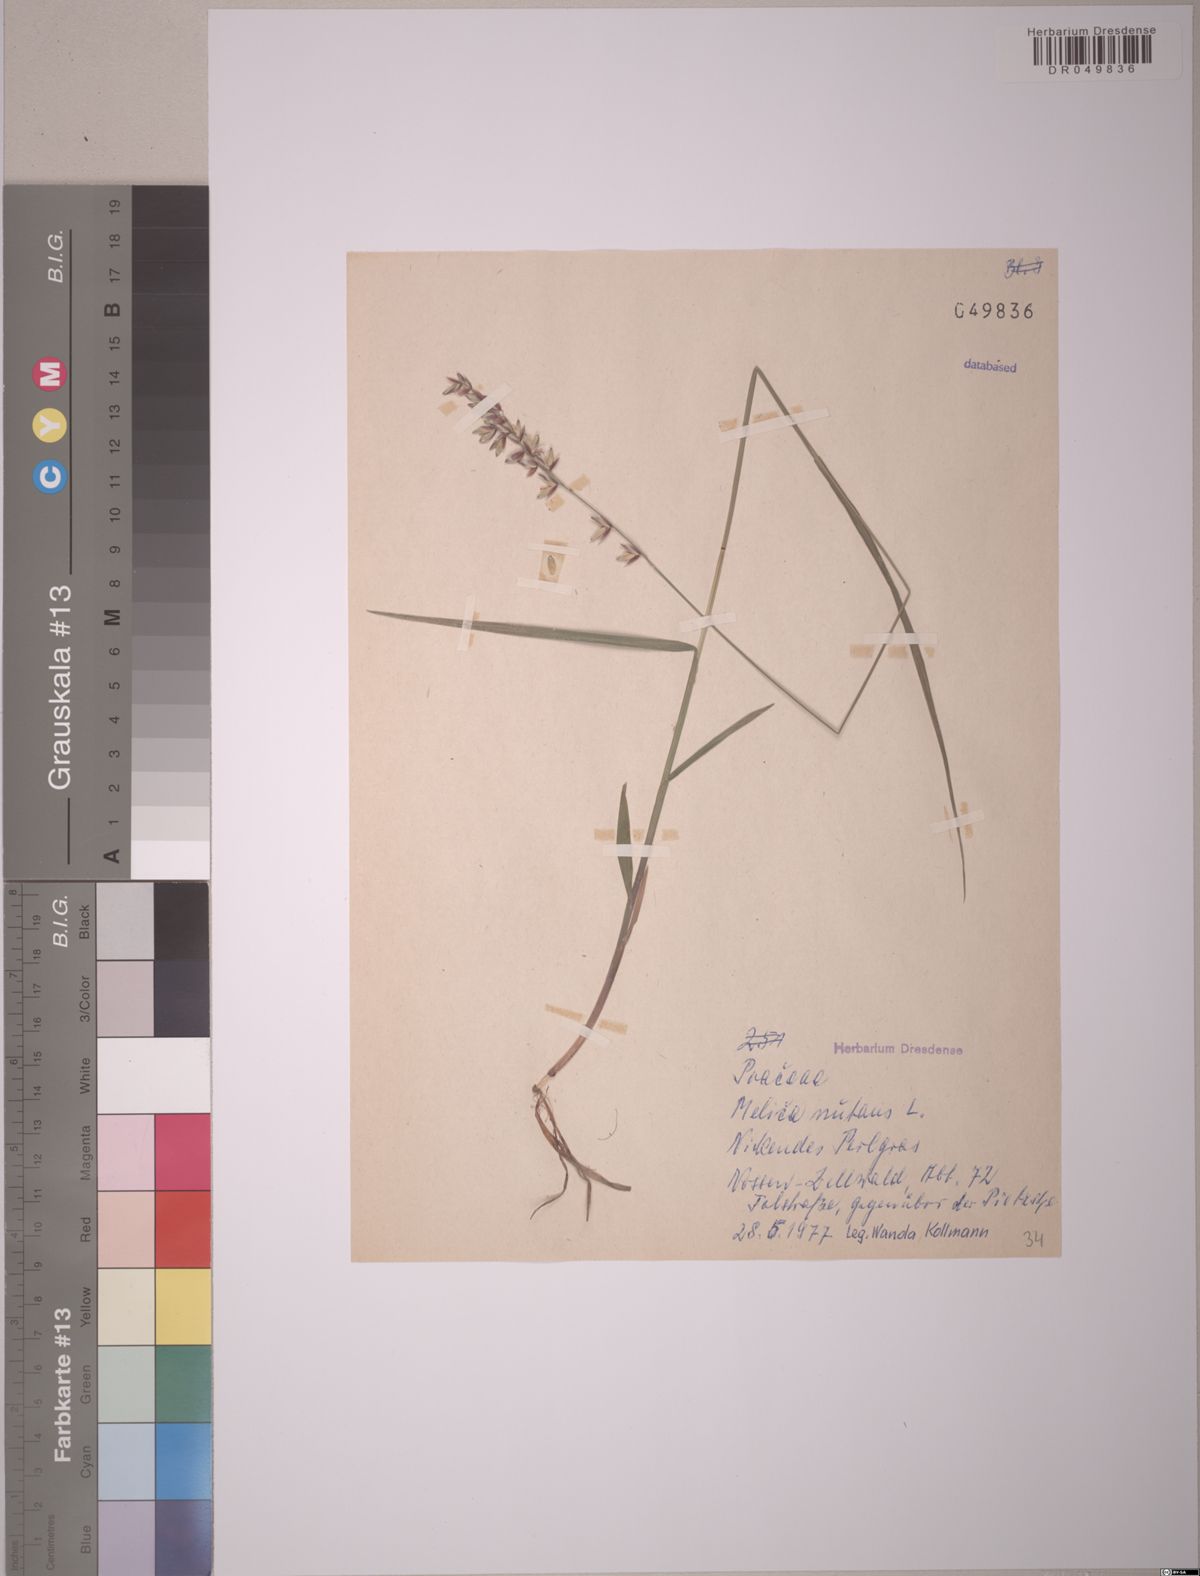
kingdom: Plantae
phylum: Tracheophyta
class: Liliopsida
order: Poales
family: Poaceae
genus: Melica
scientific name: Melica nutans
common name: Mountain melick
